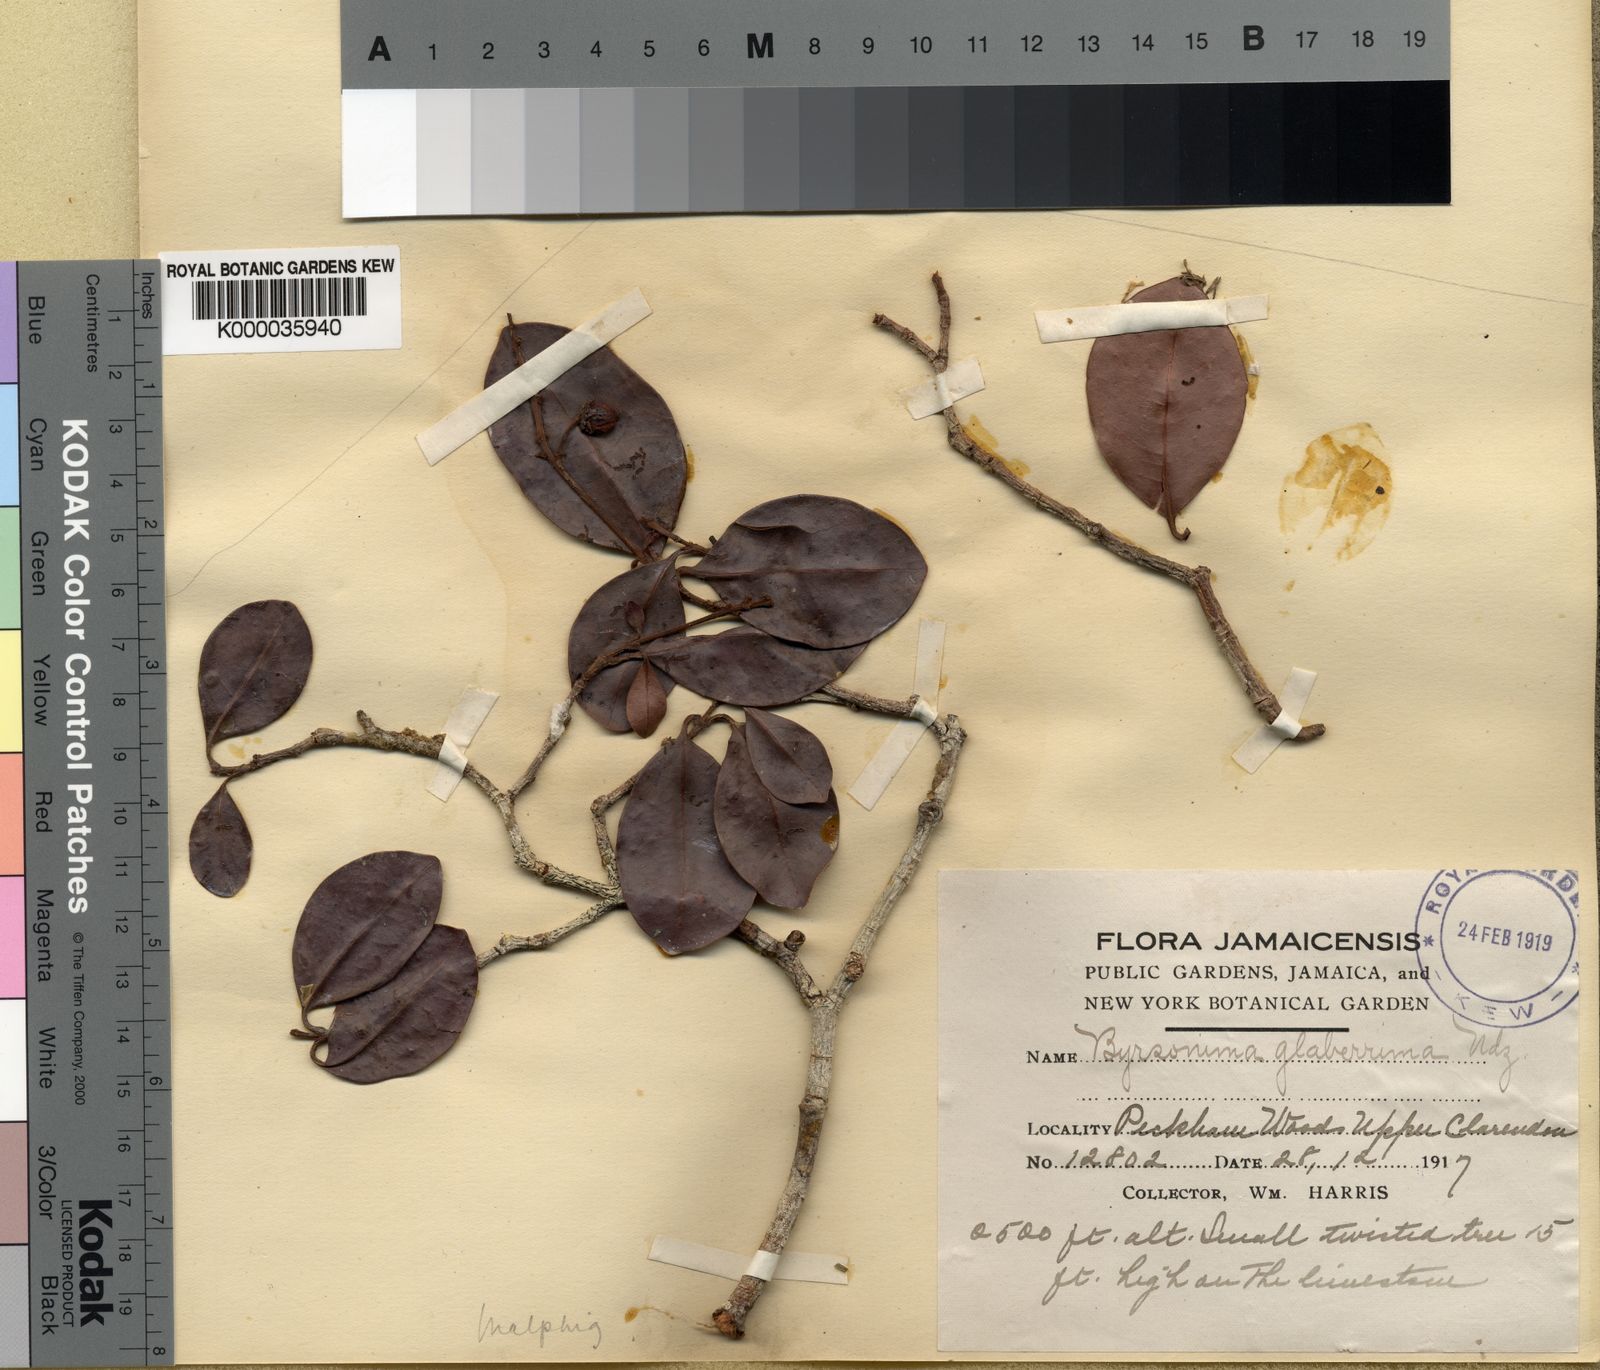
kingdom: Plantae
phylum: Tracheophyta
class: Magnoliopsida
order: Malpighiales
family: Malpighiaceae
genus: Byrsonima
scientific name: Byrsonima trinitensis
